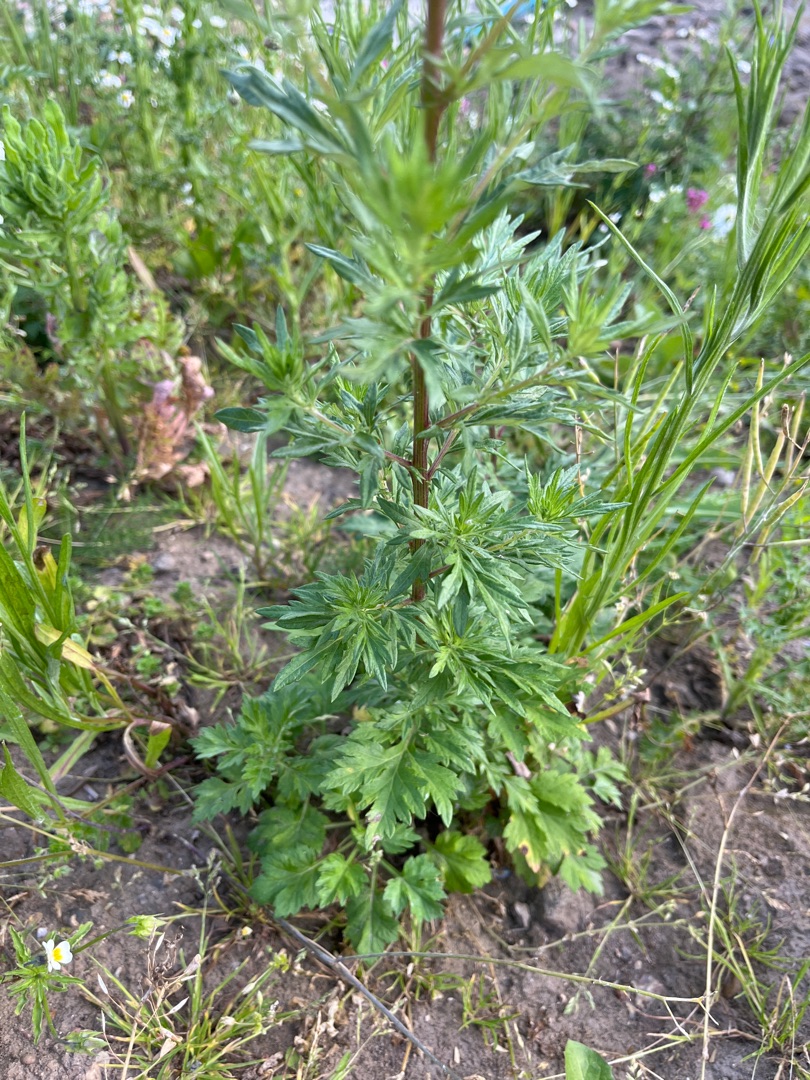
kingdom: Plantae
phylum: Tracheophyta
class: Magnoliopsida
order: Asterales
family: Asteraceae
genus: Artemisia
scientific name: Artemisia vulgaris
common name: Grå-bynke
